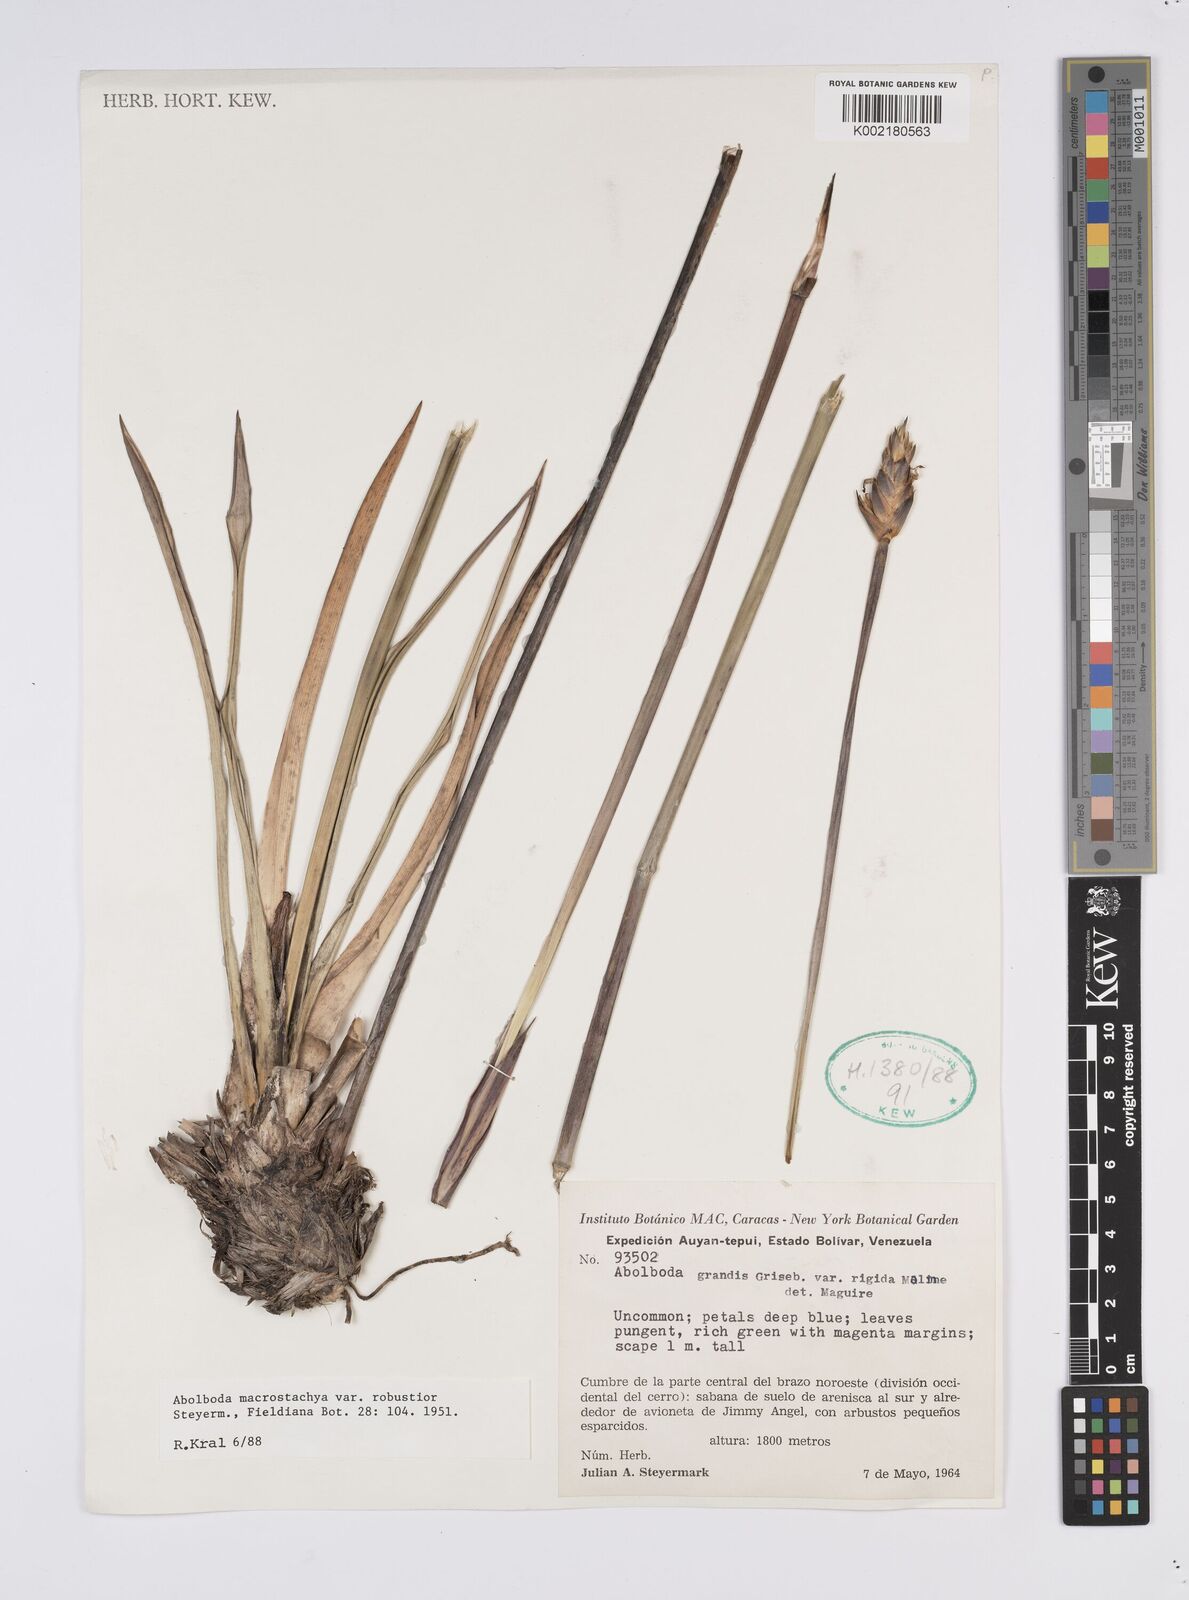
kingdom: Plantae
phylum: Tracheophyta
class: Liliopsida
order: Poales
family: Xyridaceae
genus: Abolboda
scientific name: Abolboda macrostachya
